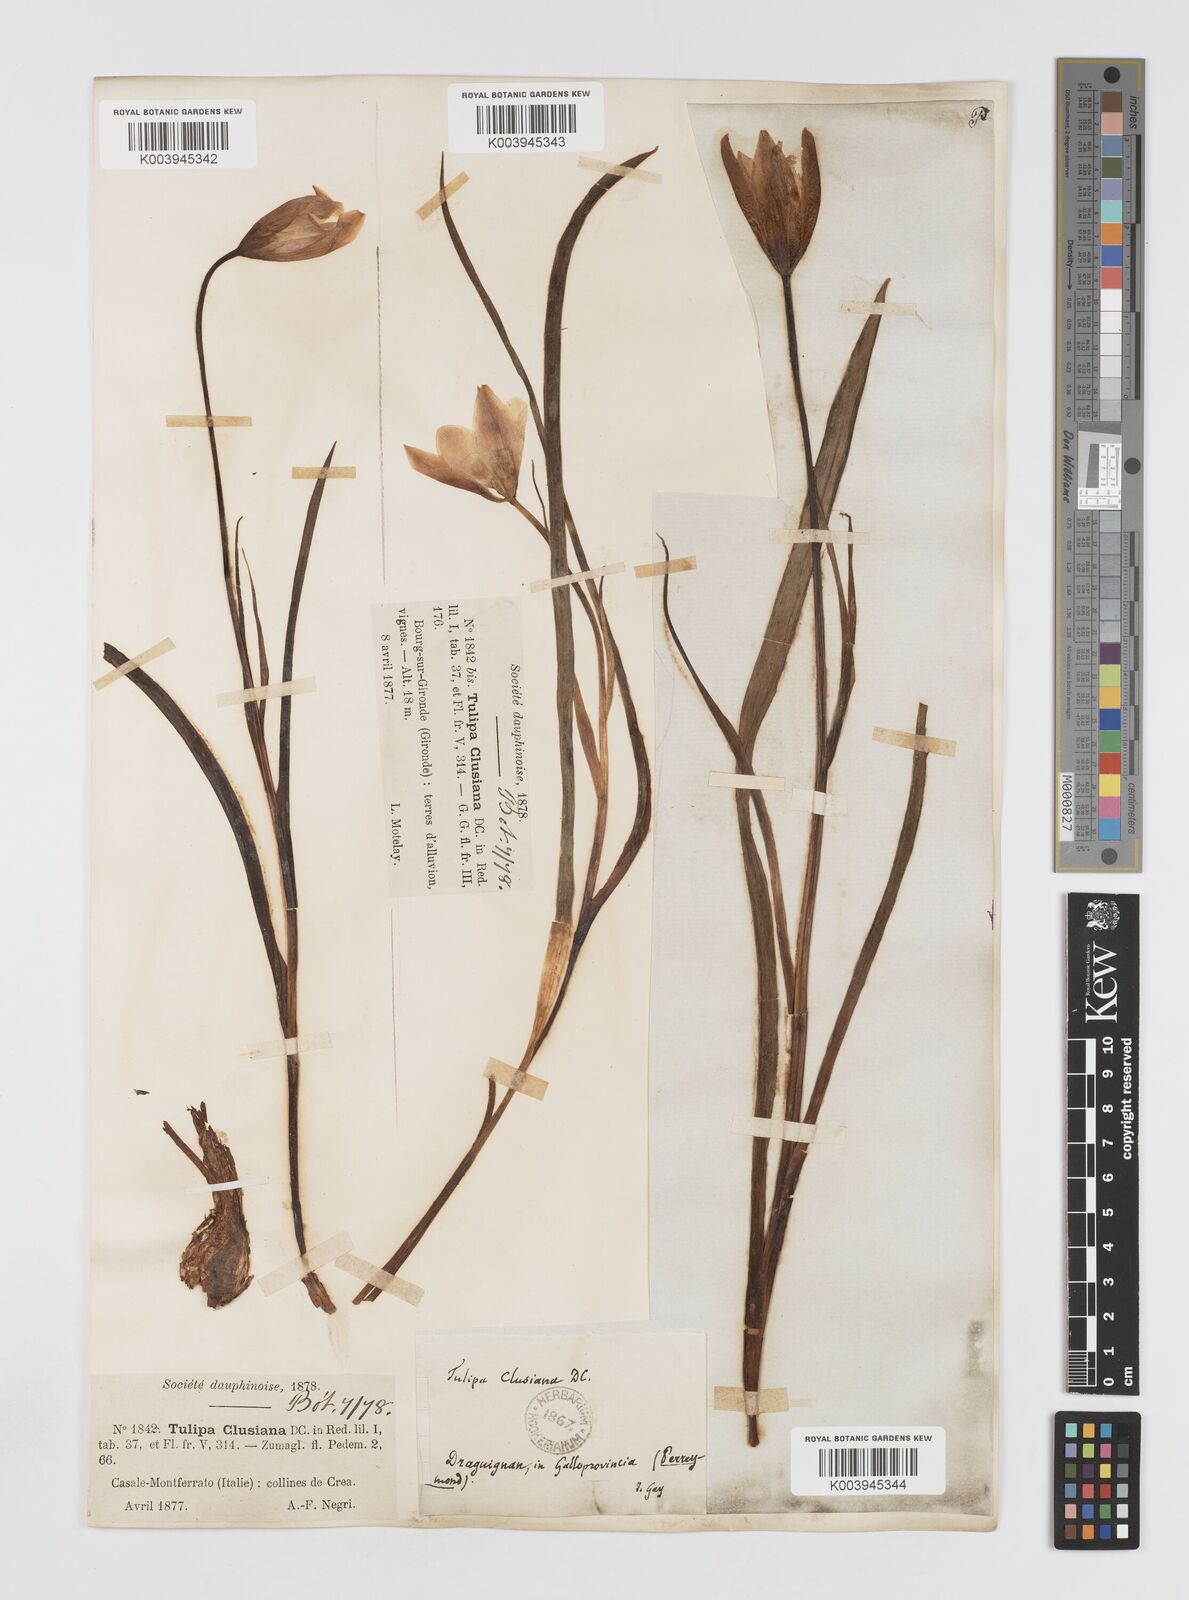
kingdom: Plantae
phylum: Tracheophyta
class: Liliopsida
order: Liliales
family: Liliaceae
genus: Tulipa
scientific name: Tulipa clusiana
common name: Lady tulip
